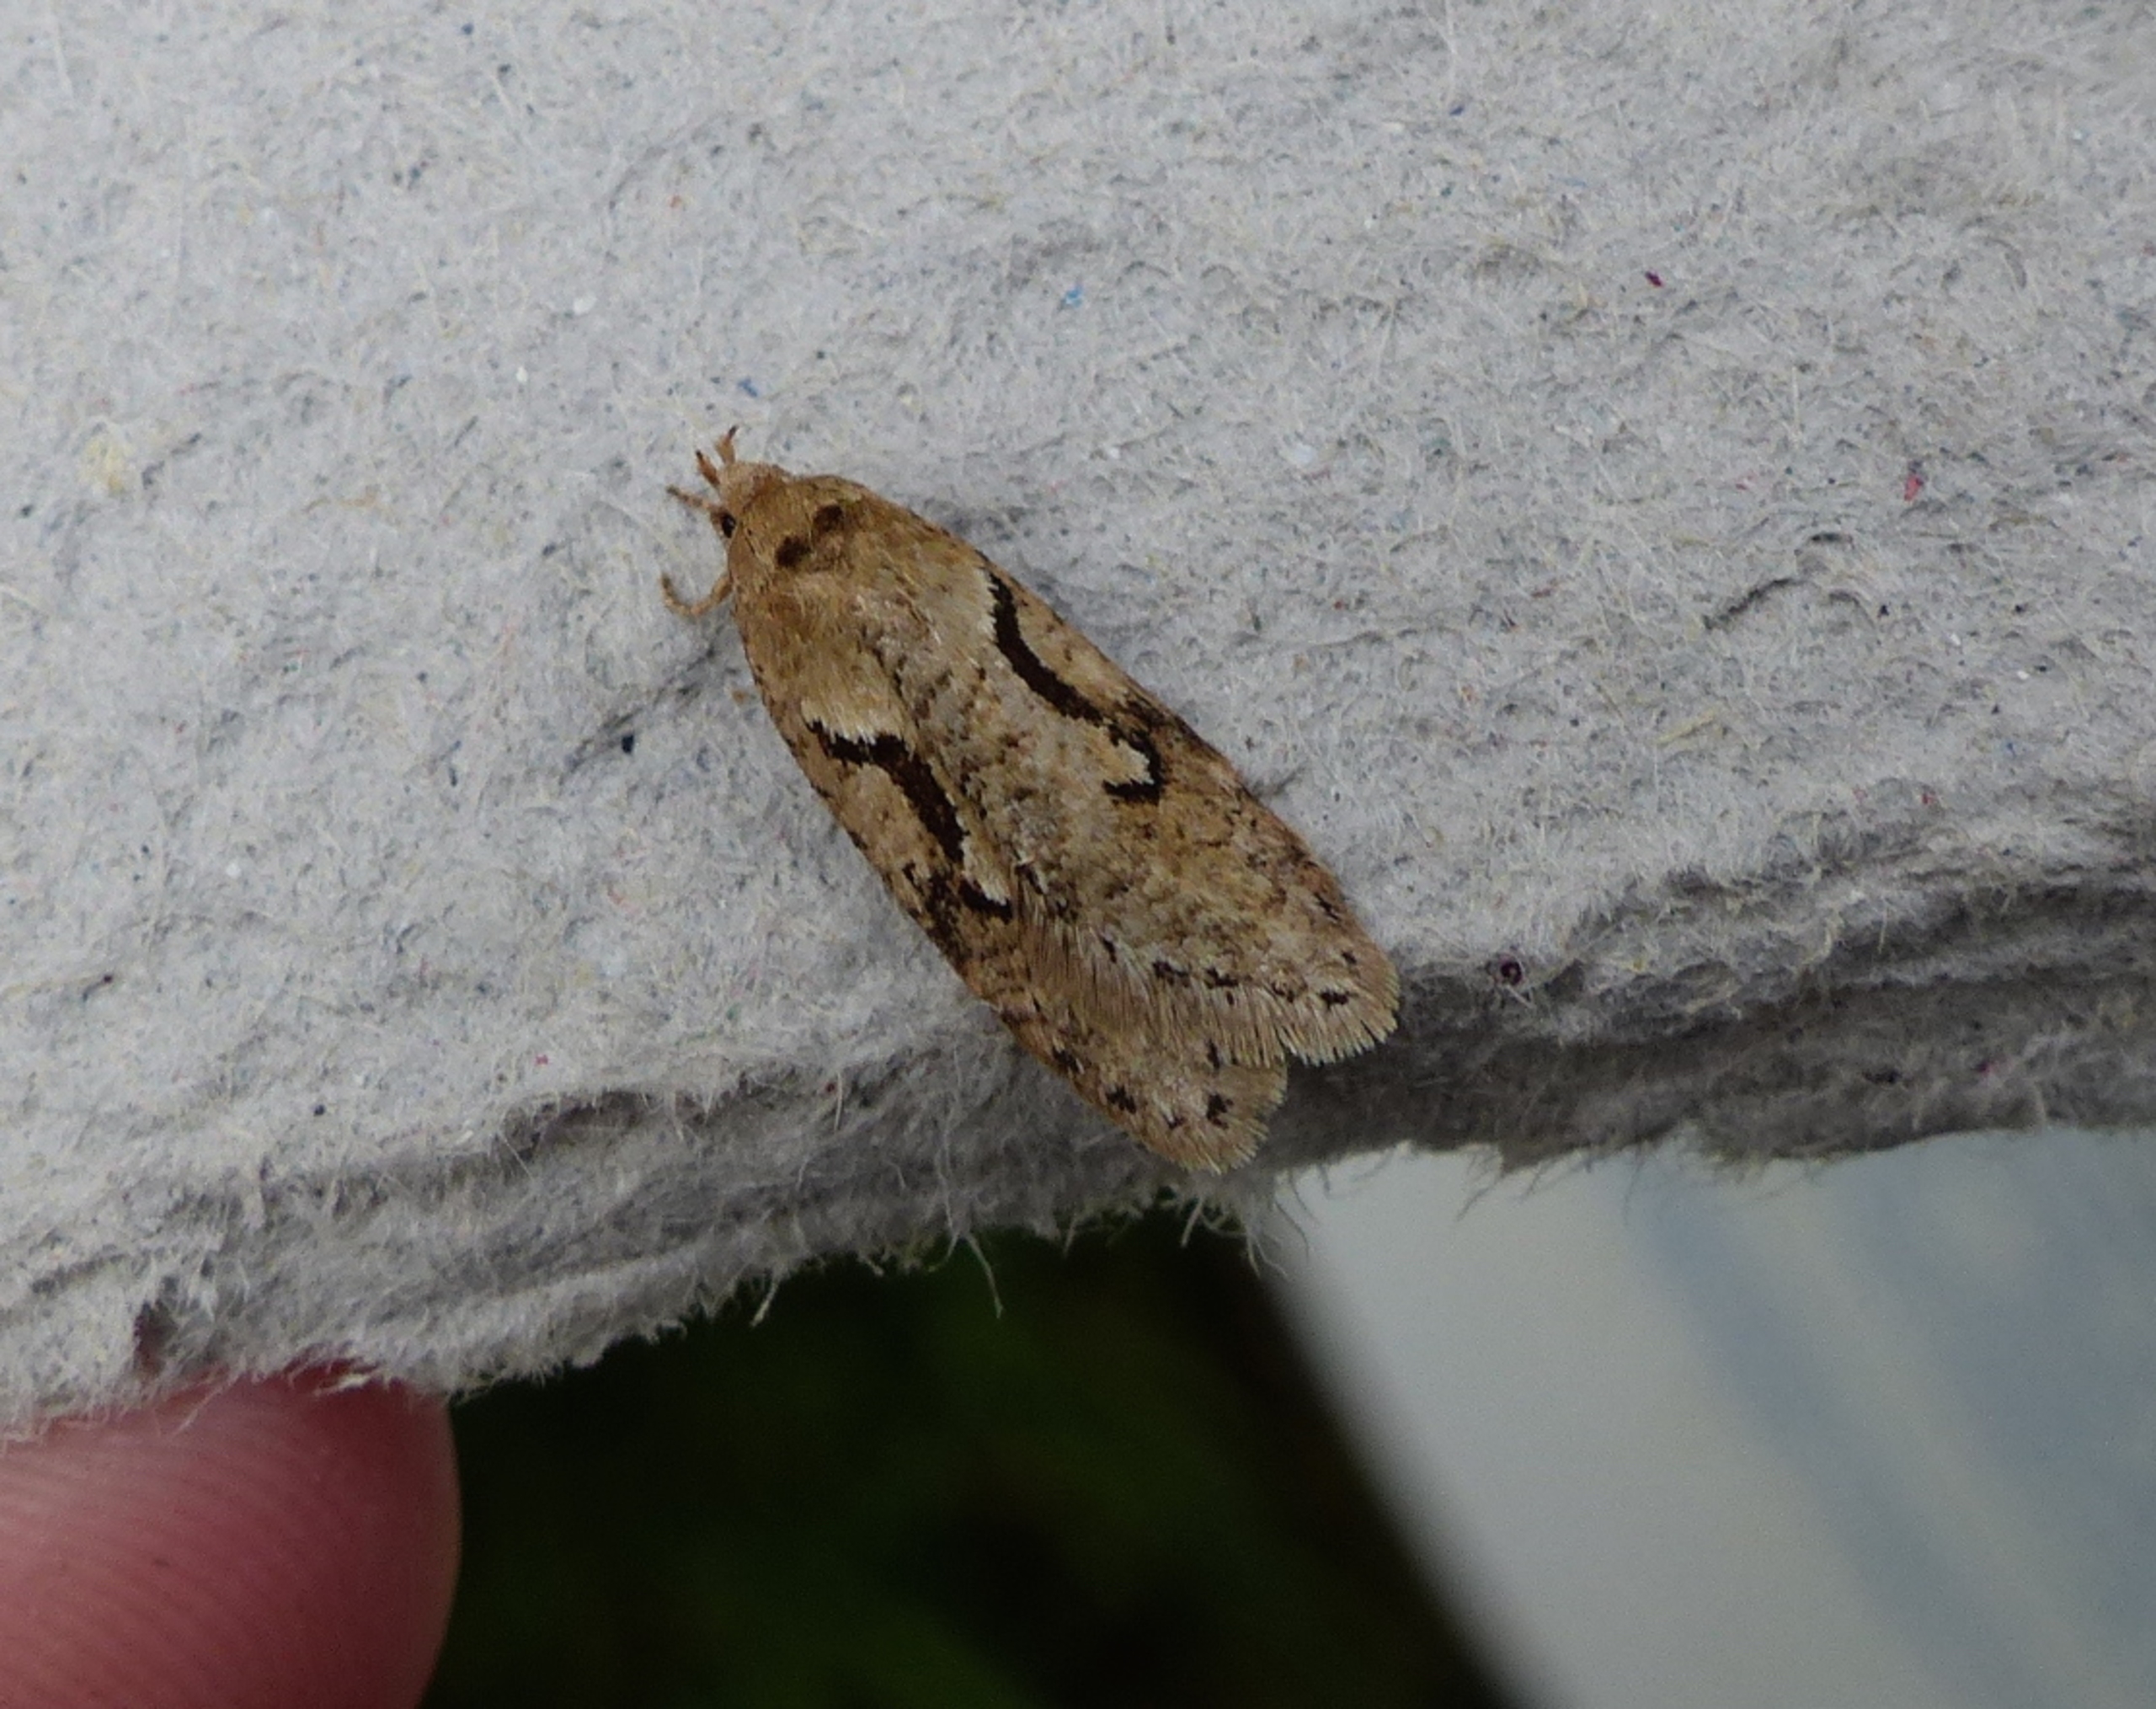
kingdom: Animalia
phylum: Arthropoda
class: Insecta
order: Lepidoptera
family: Depressariidae
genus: Semioscopis
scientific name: Semioscopis steinkellneriana
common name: Tjørneforårsmøl
